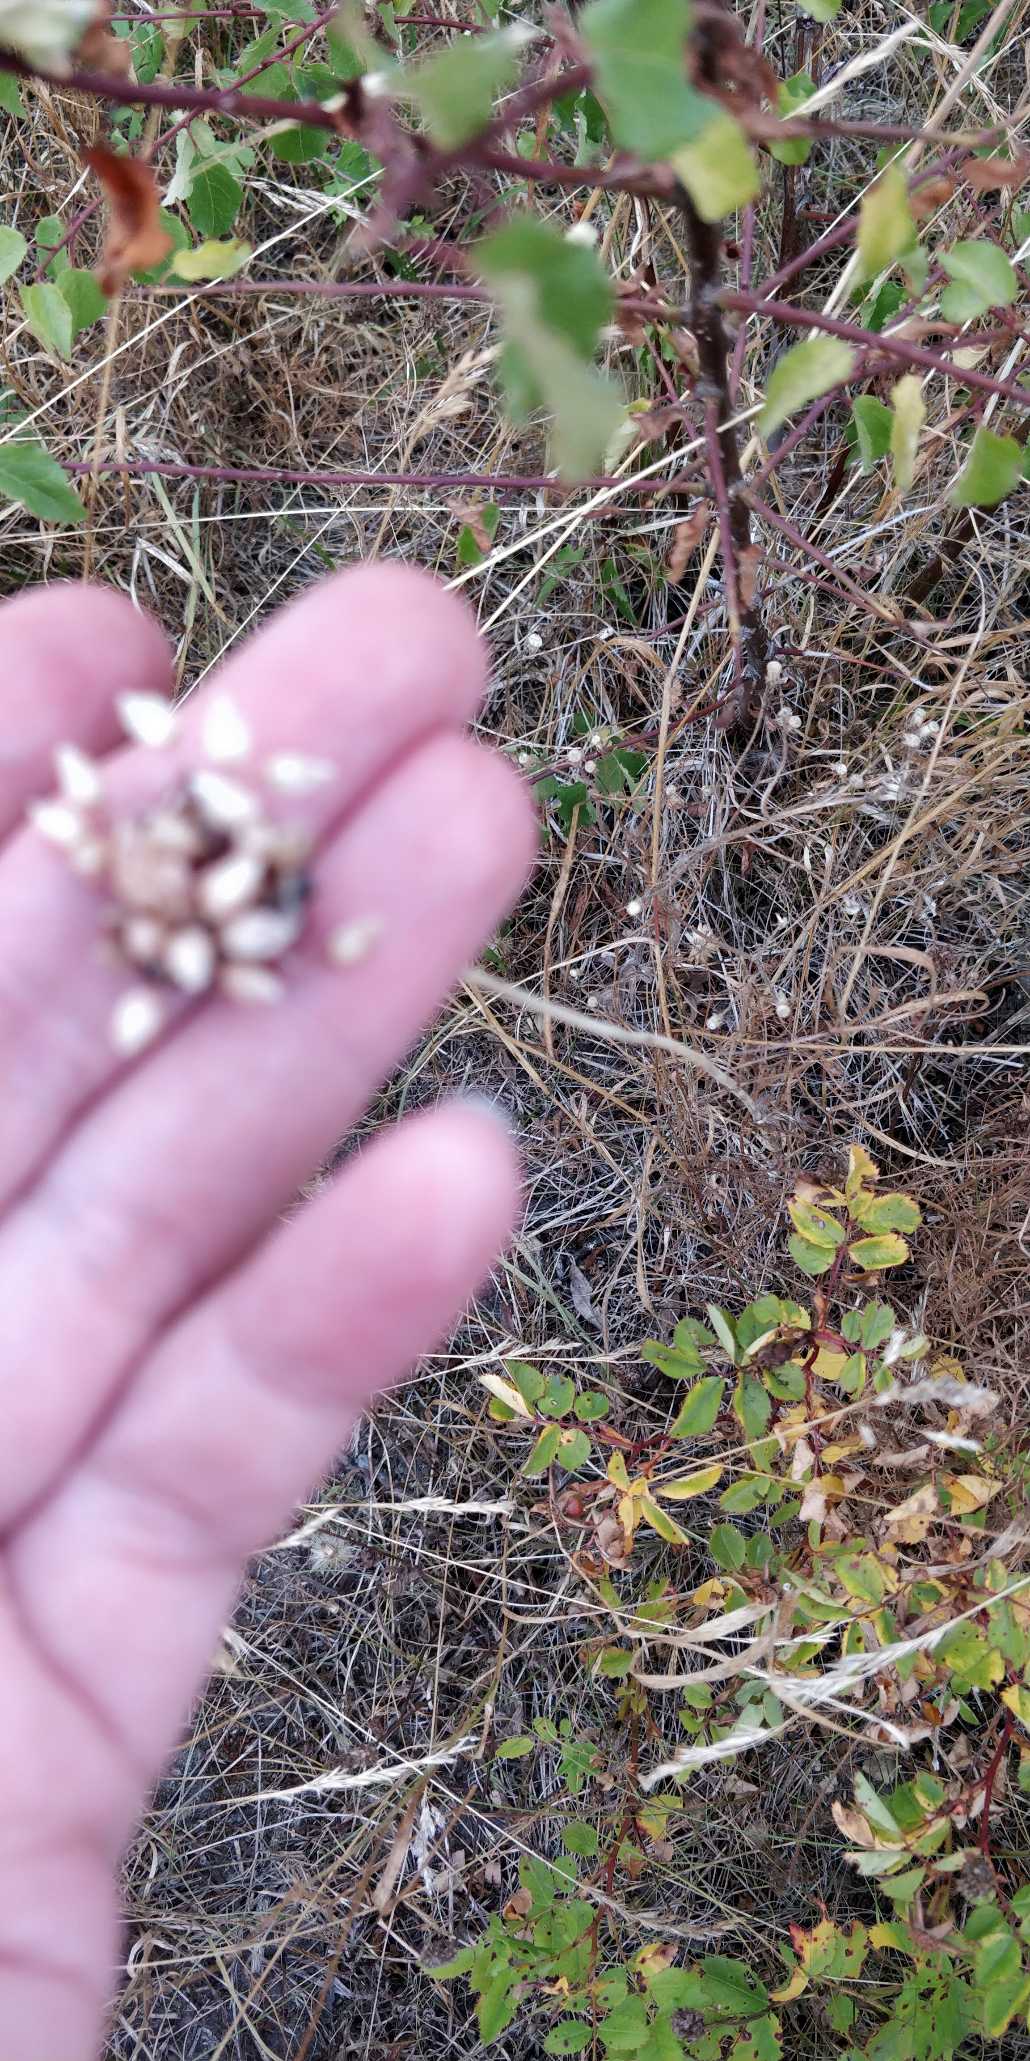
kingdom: Plantae
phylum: Tracheophyta
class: Liliopsida
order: Asparagales
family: Amaryllidaceae
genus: Allium
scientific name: Allium scorodoprasum
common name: Skov-løg
